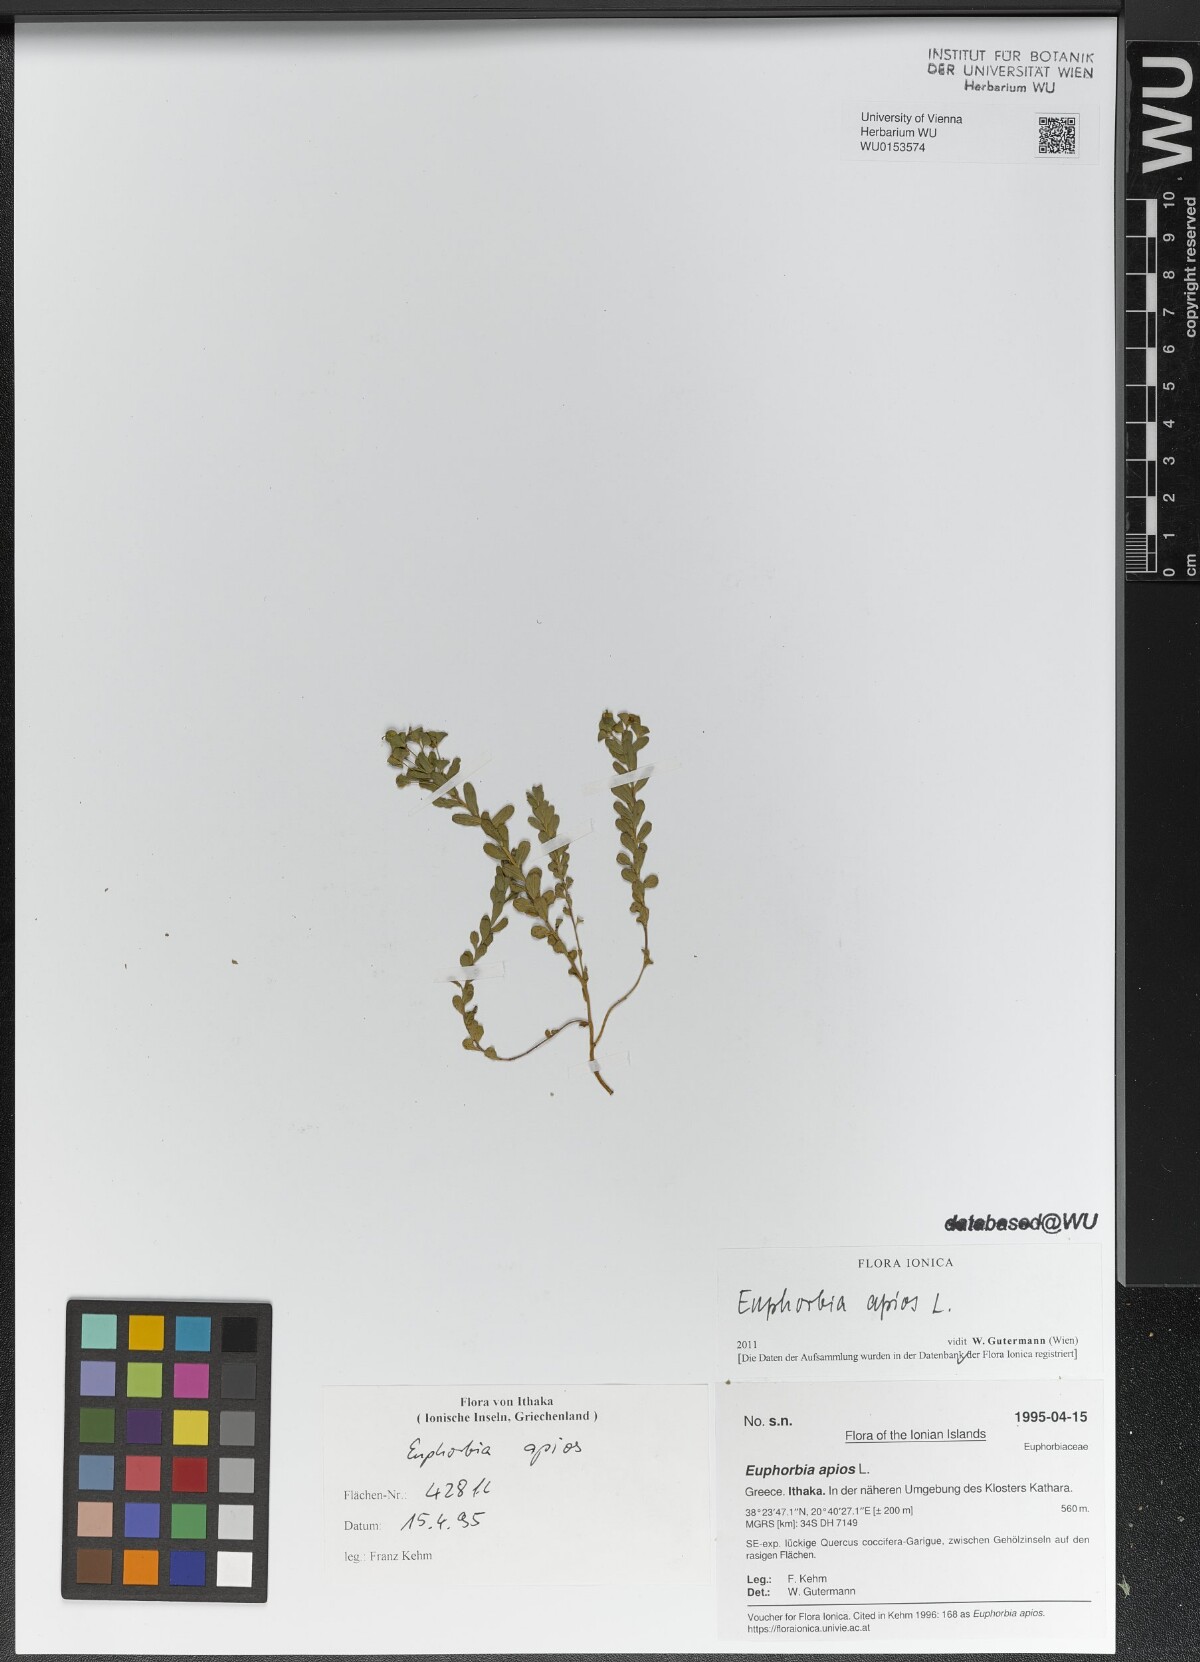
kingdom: Plantae
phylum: Tracheophyta
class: Magnoliopsida
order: Malpighiales
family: Euphorbiaceae
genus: Euphorbia
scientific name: Euphorbia apios
